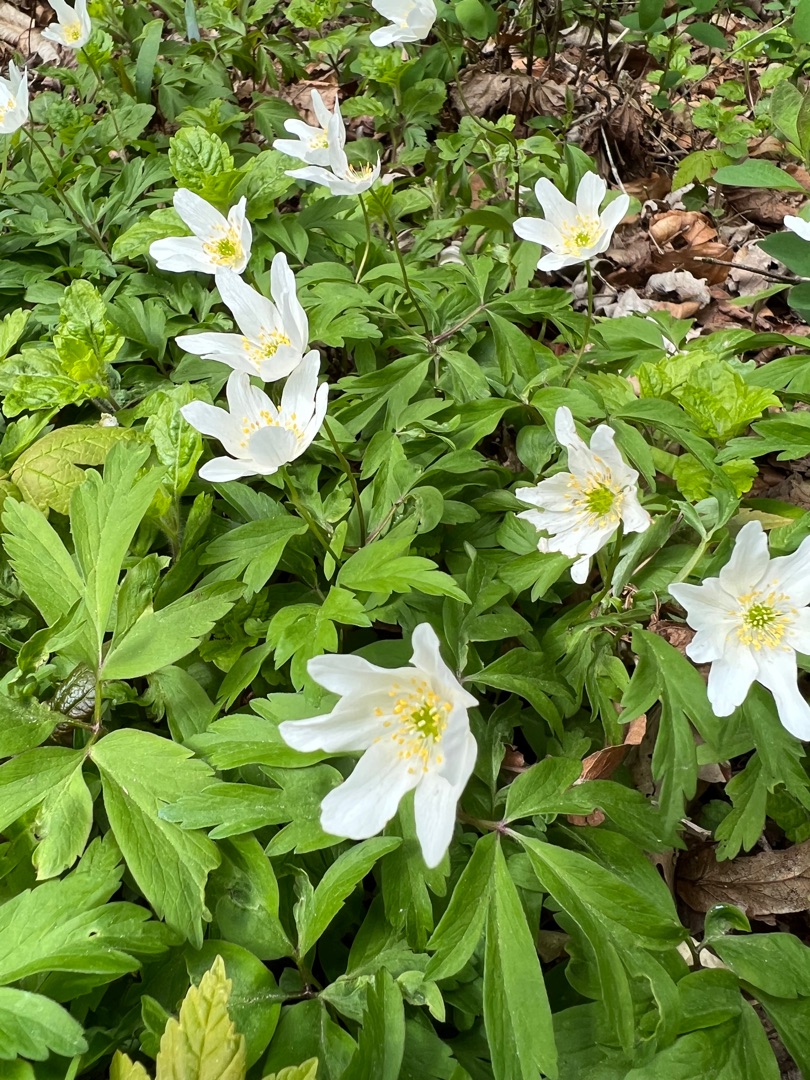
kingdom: Plantae
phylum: Tracheophyta
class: Magnoliopsida
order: Ranunculales
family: Ranunculaceae
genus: Anemone
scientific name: Anemone nemorosa
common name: Hvid anemone
